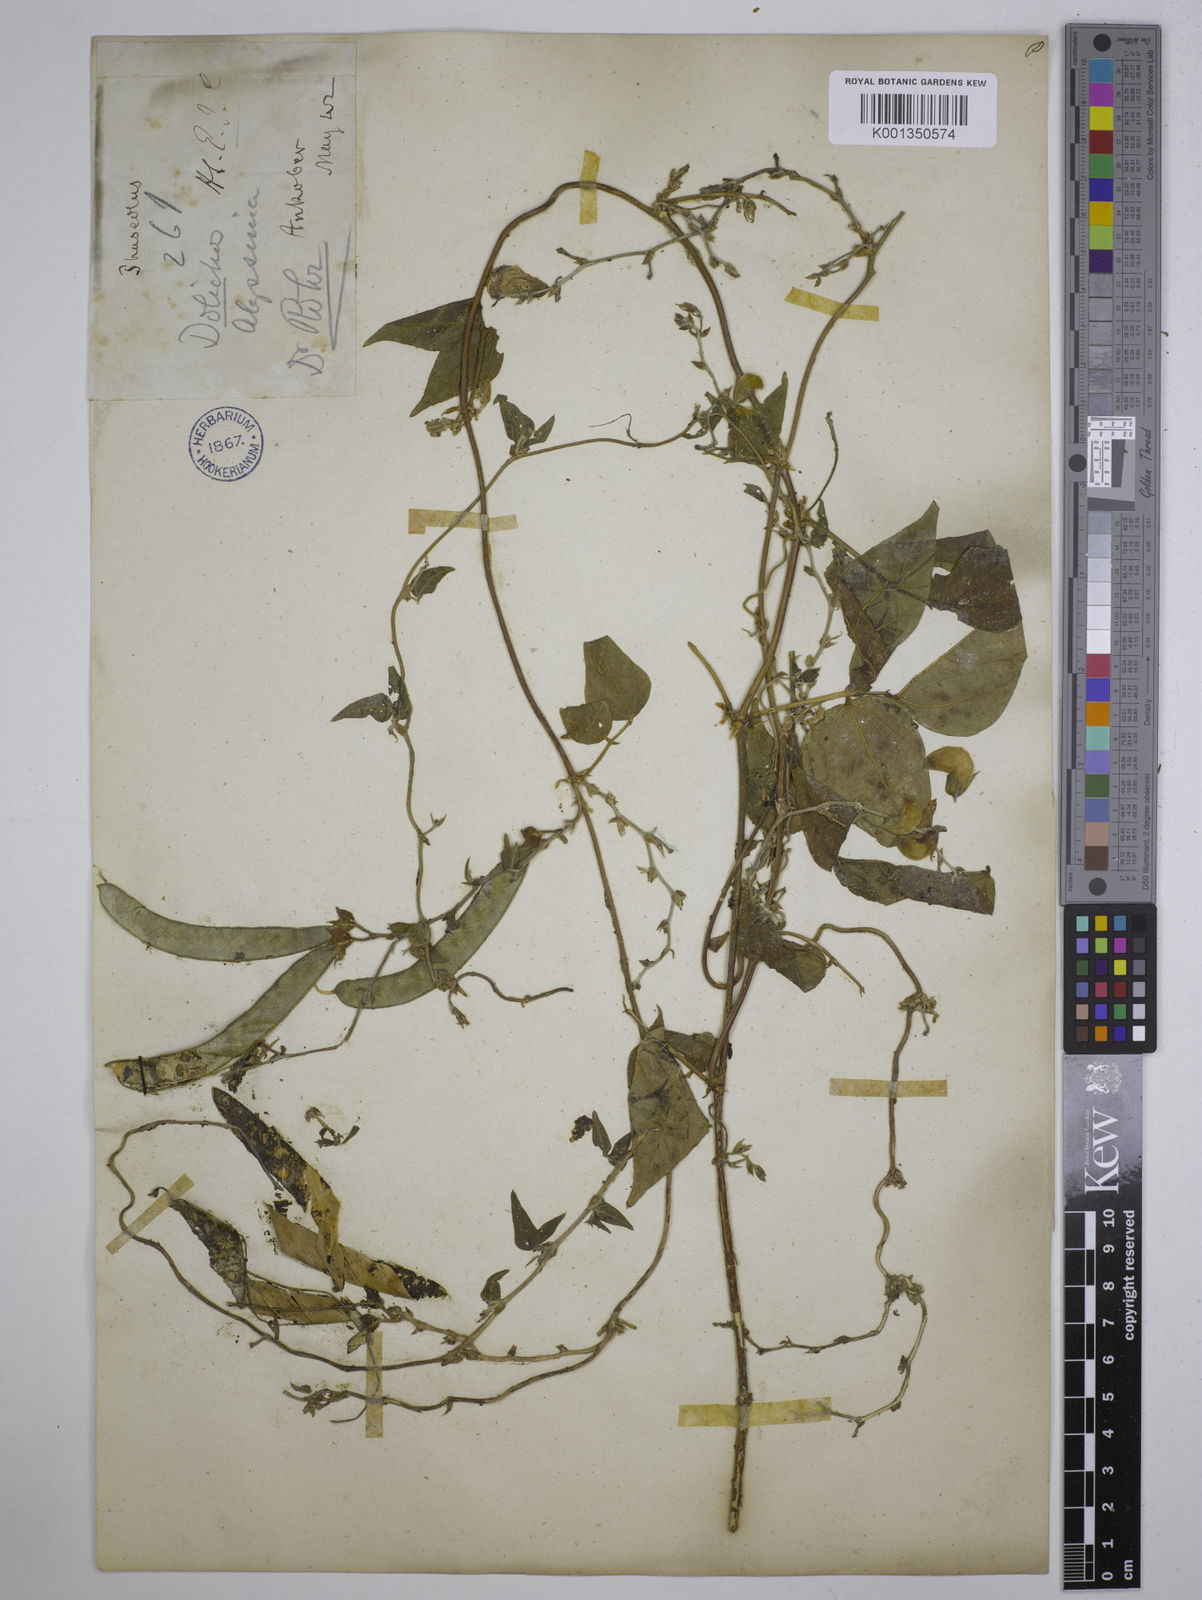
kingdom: Plantae
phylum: Tracheophyta
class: Magnoliopsida
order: Fabales
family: Fabaceae
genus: Dolichos
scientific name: Dolichos
